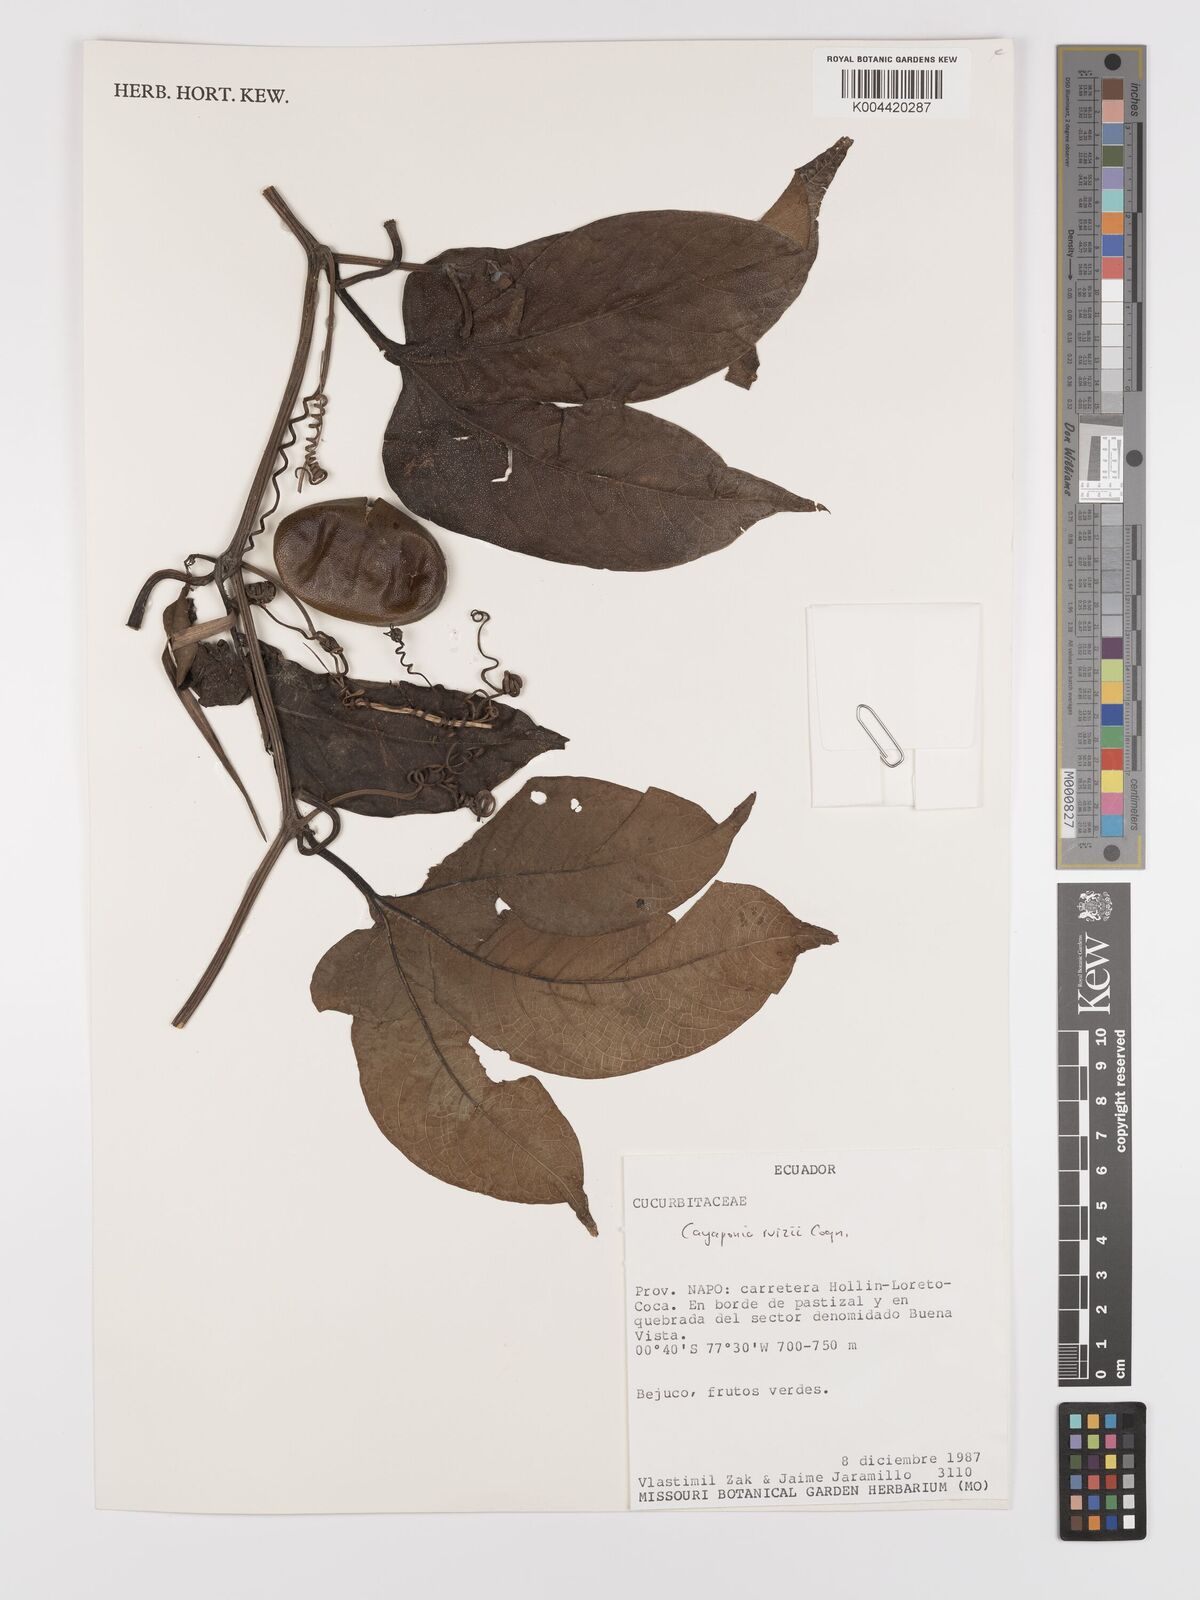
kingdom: Plantae
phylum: Tracheophyta
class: Magnoliopsida
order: Cucurbitales
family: Cucurbitaceae
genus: Cayaponia
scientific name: Cayaponia ruizii
